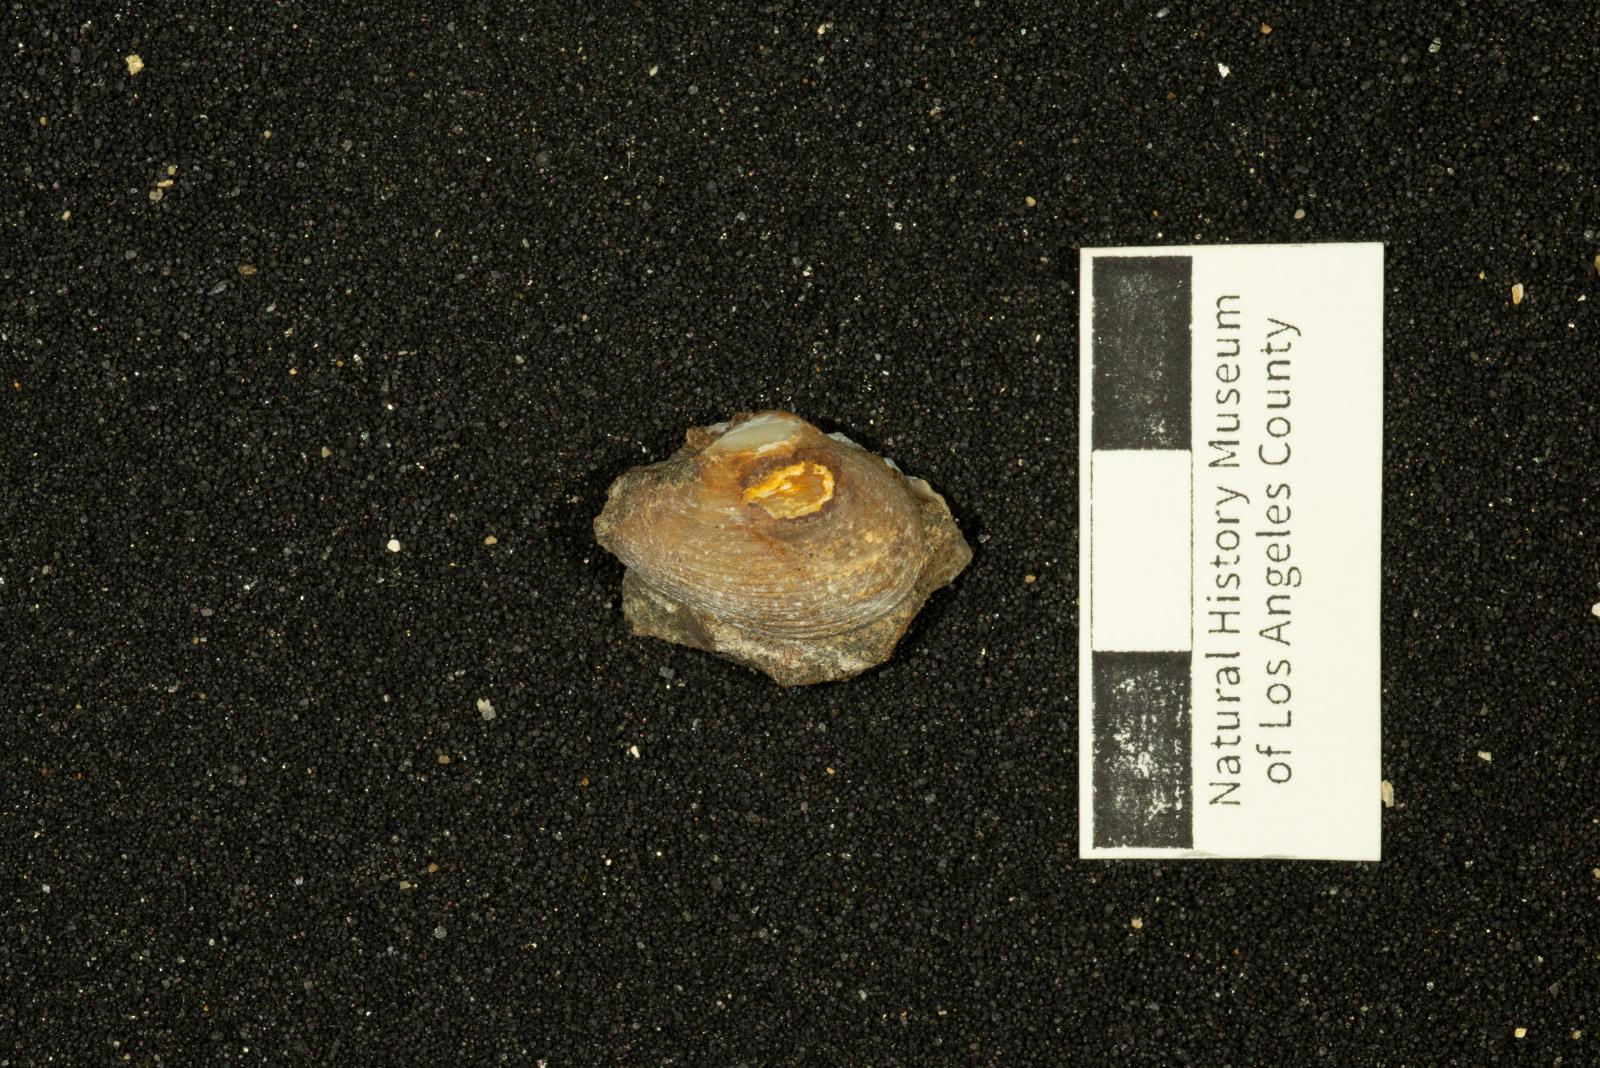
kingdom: Animalia
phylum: Mollusca
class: Bivalvia
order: Myida
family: Corbulidae
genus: Excorbula
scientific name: Excorbula parkyi
